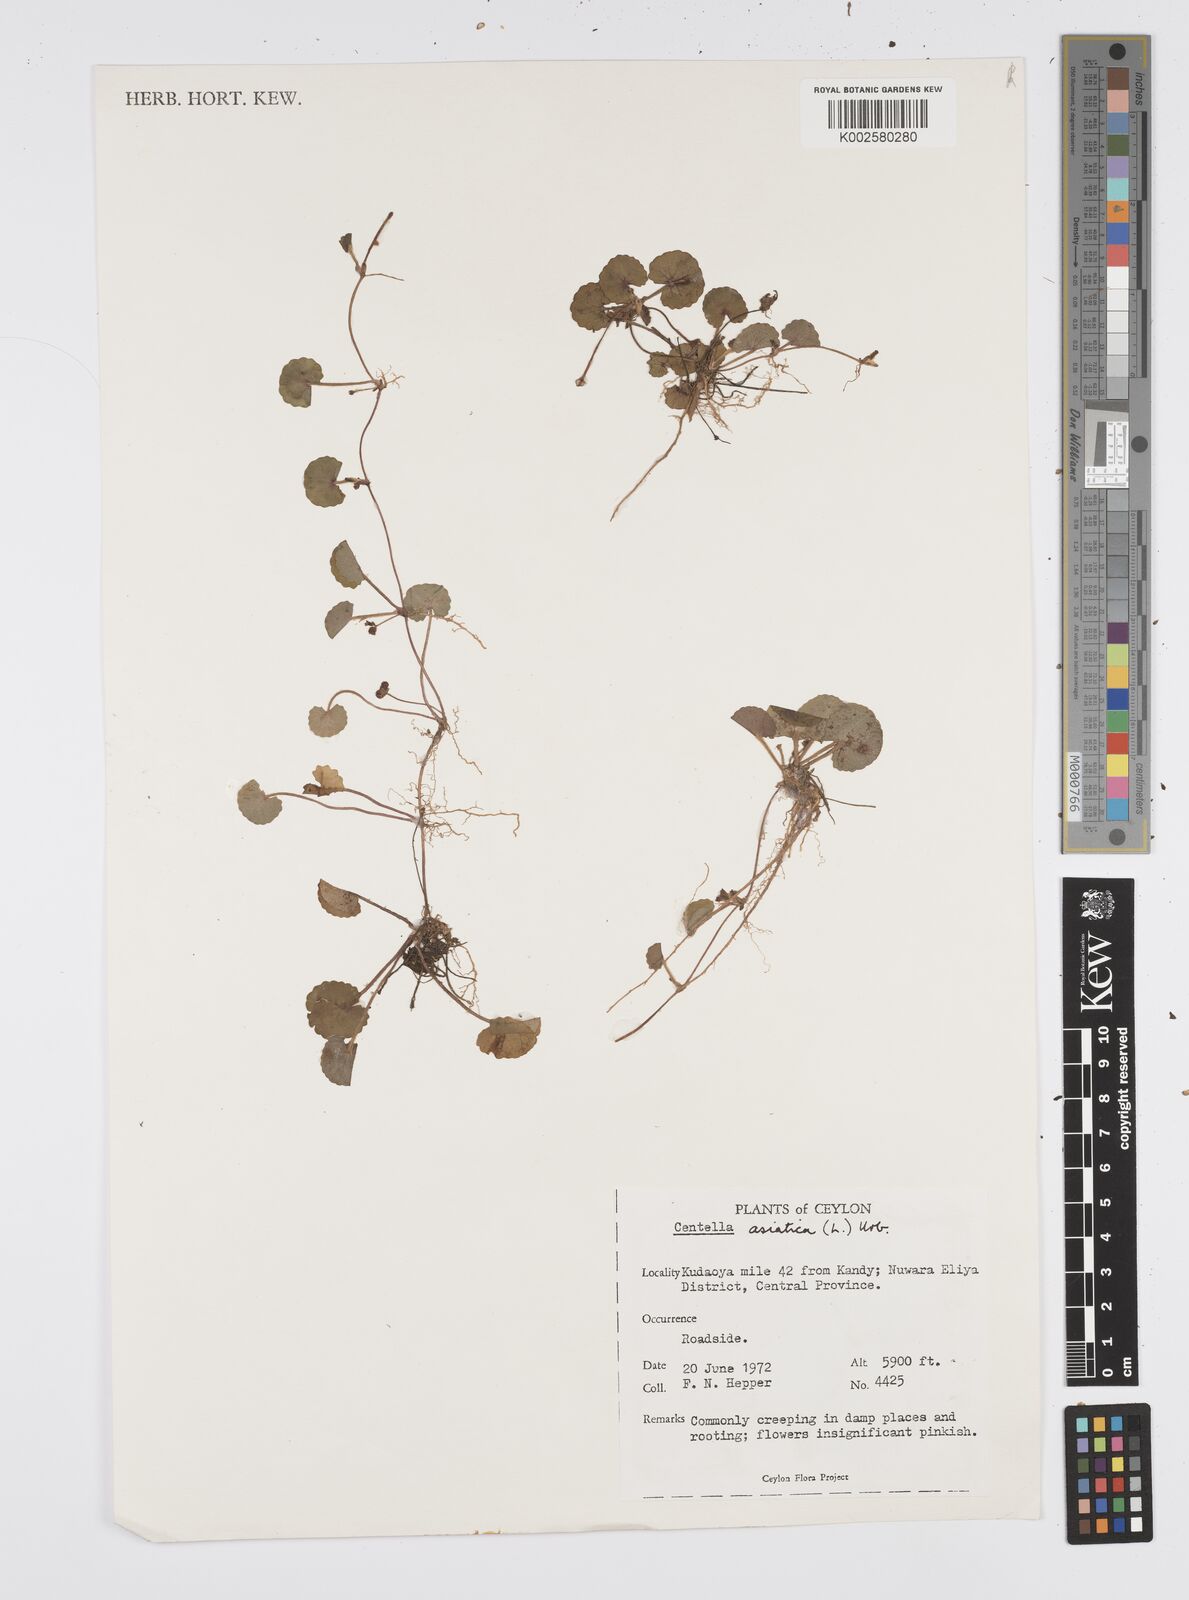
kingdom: Plantae
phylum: Tracheophyta
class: Magnoliopsida
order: Apiales
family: Apiaceae
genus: Centella
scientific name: Centella asiatica
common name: Spadeleaf
